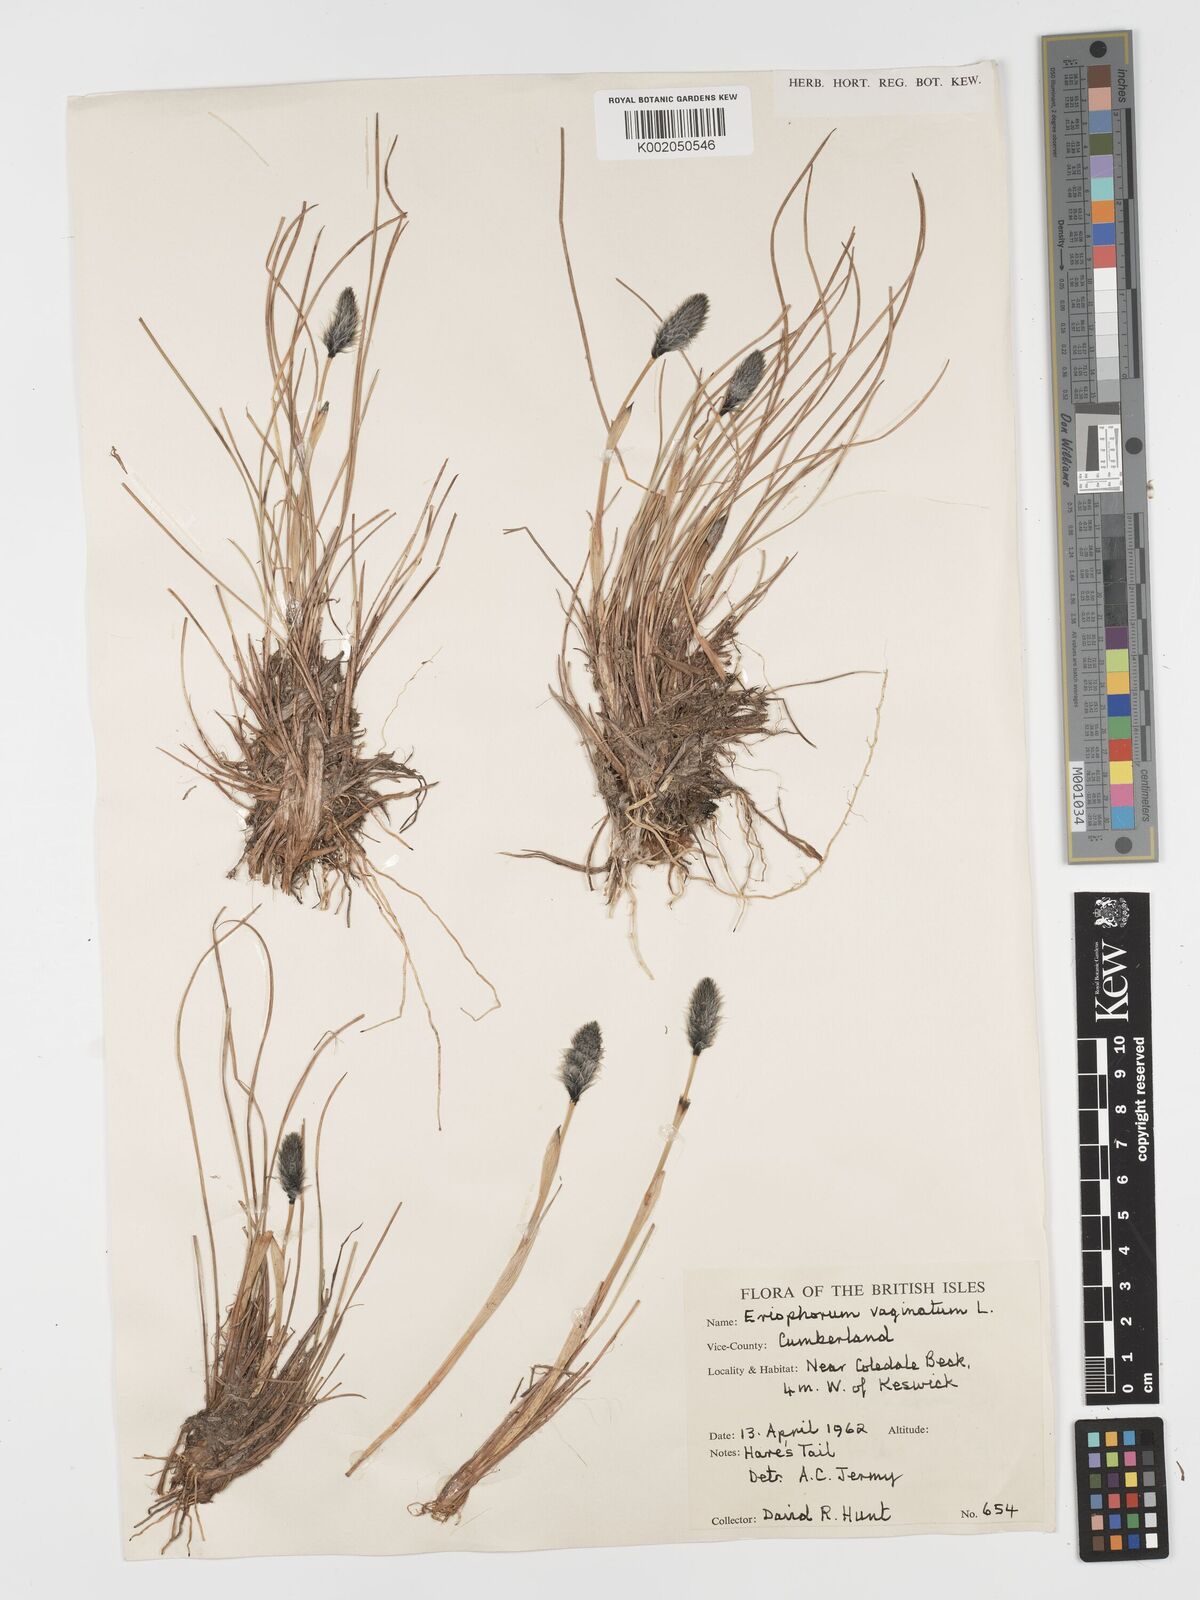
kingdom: Plantae
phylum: Tracheophyta
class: Liliopsida
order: Poales
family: Cyperaceae
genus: Eriophorum
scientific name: Eriophorum vaginatum
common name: Hare's-tail cottongrass
